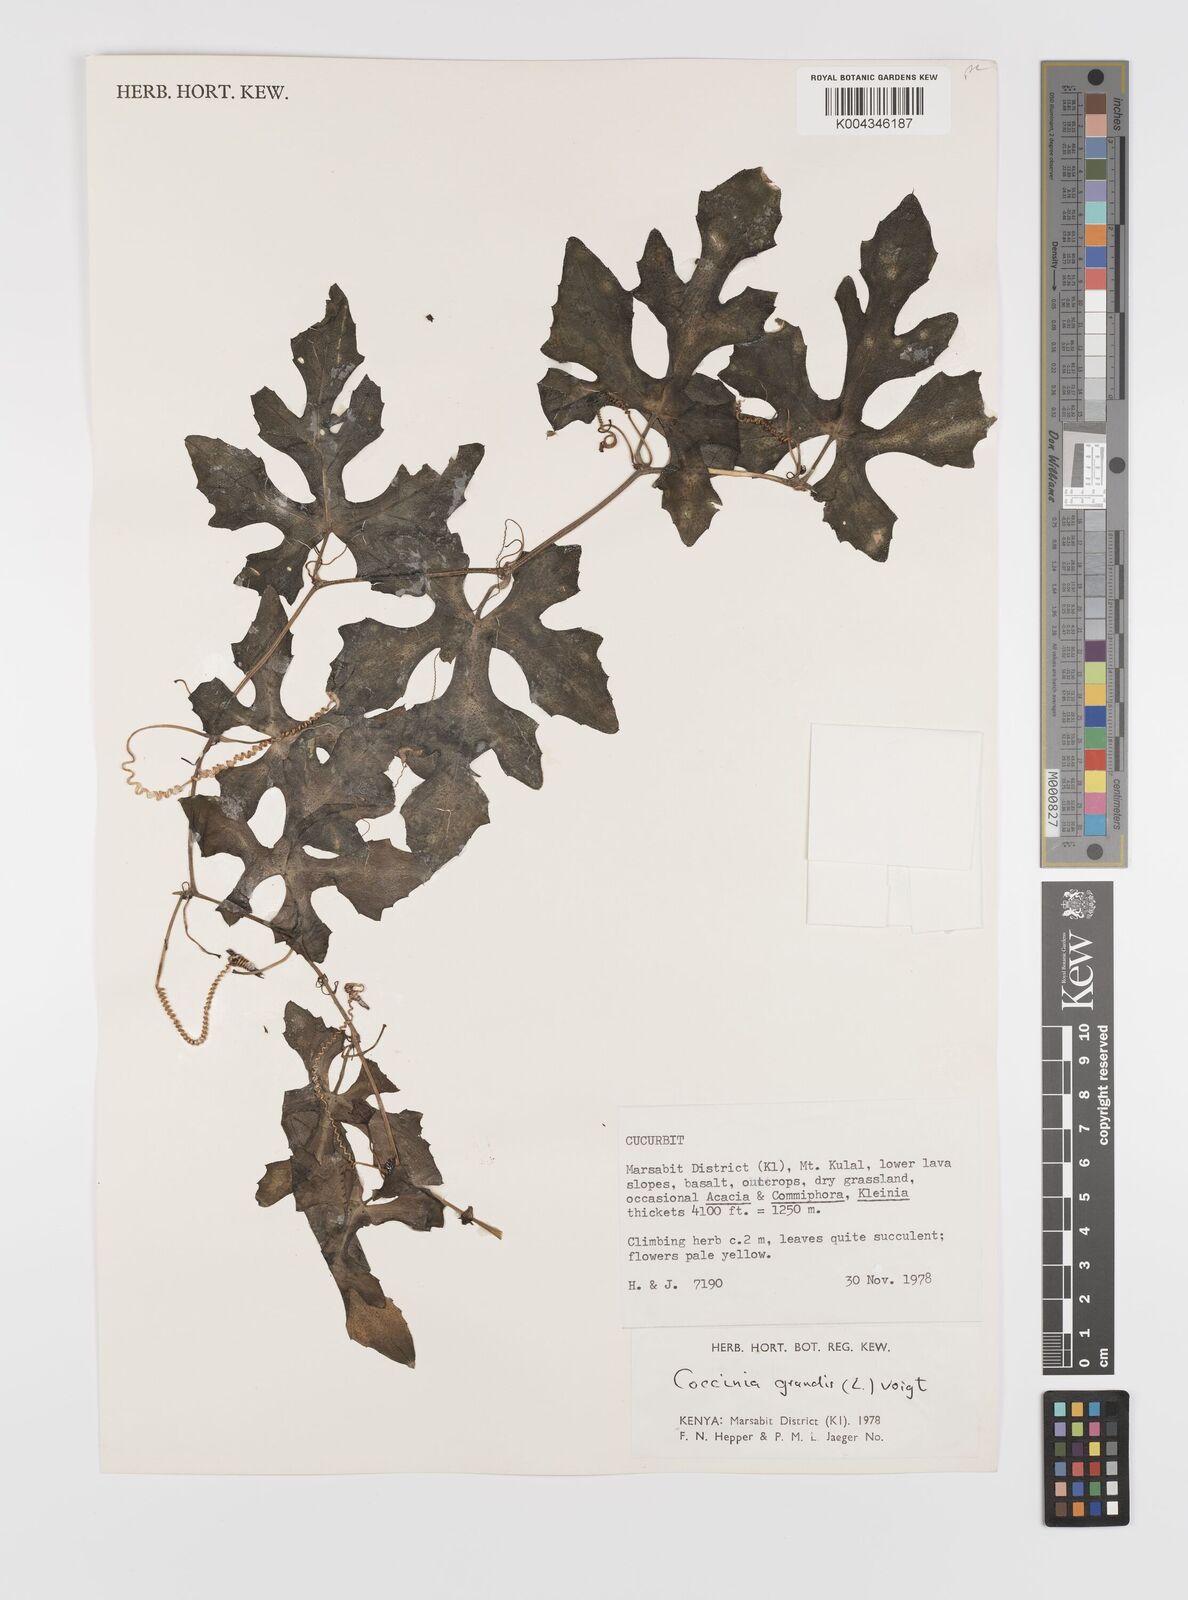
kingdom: Plantae
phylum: Tracheophyta
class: Magnoliopsida
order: Cucurbitales
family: Cucurbitaceae
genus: Coccinia
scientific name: Coccinia grandis
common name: Ivy gourd
